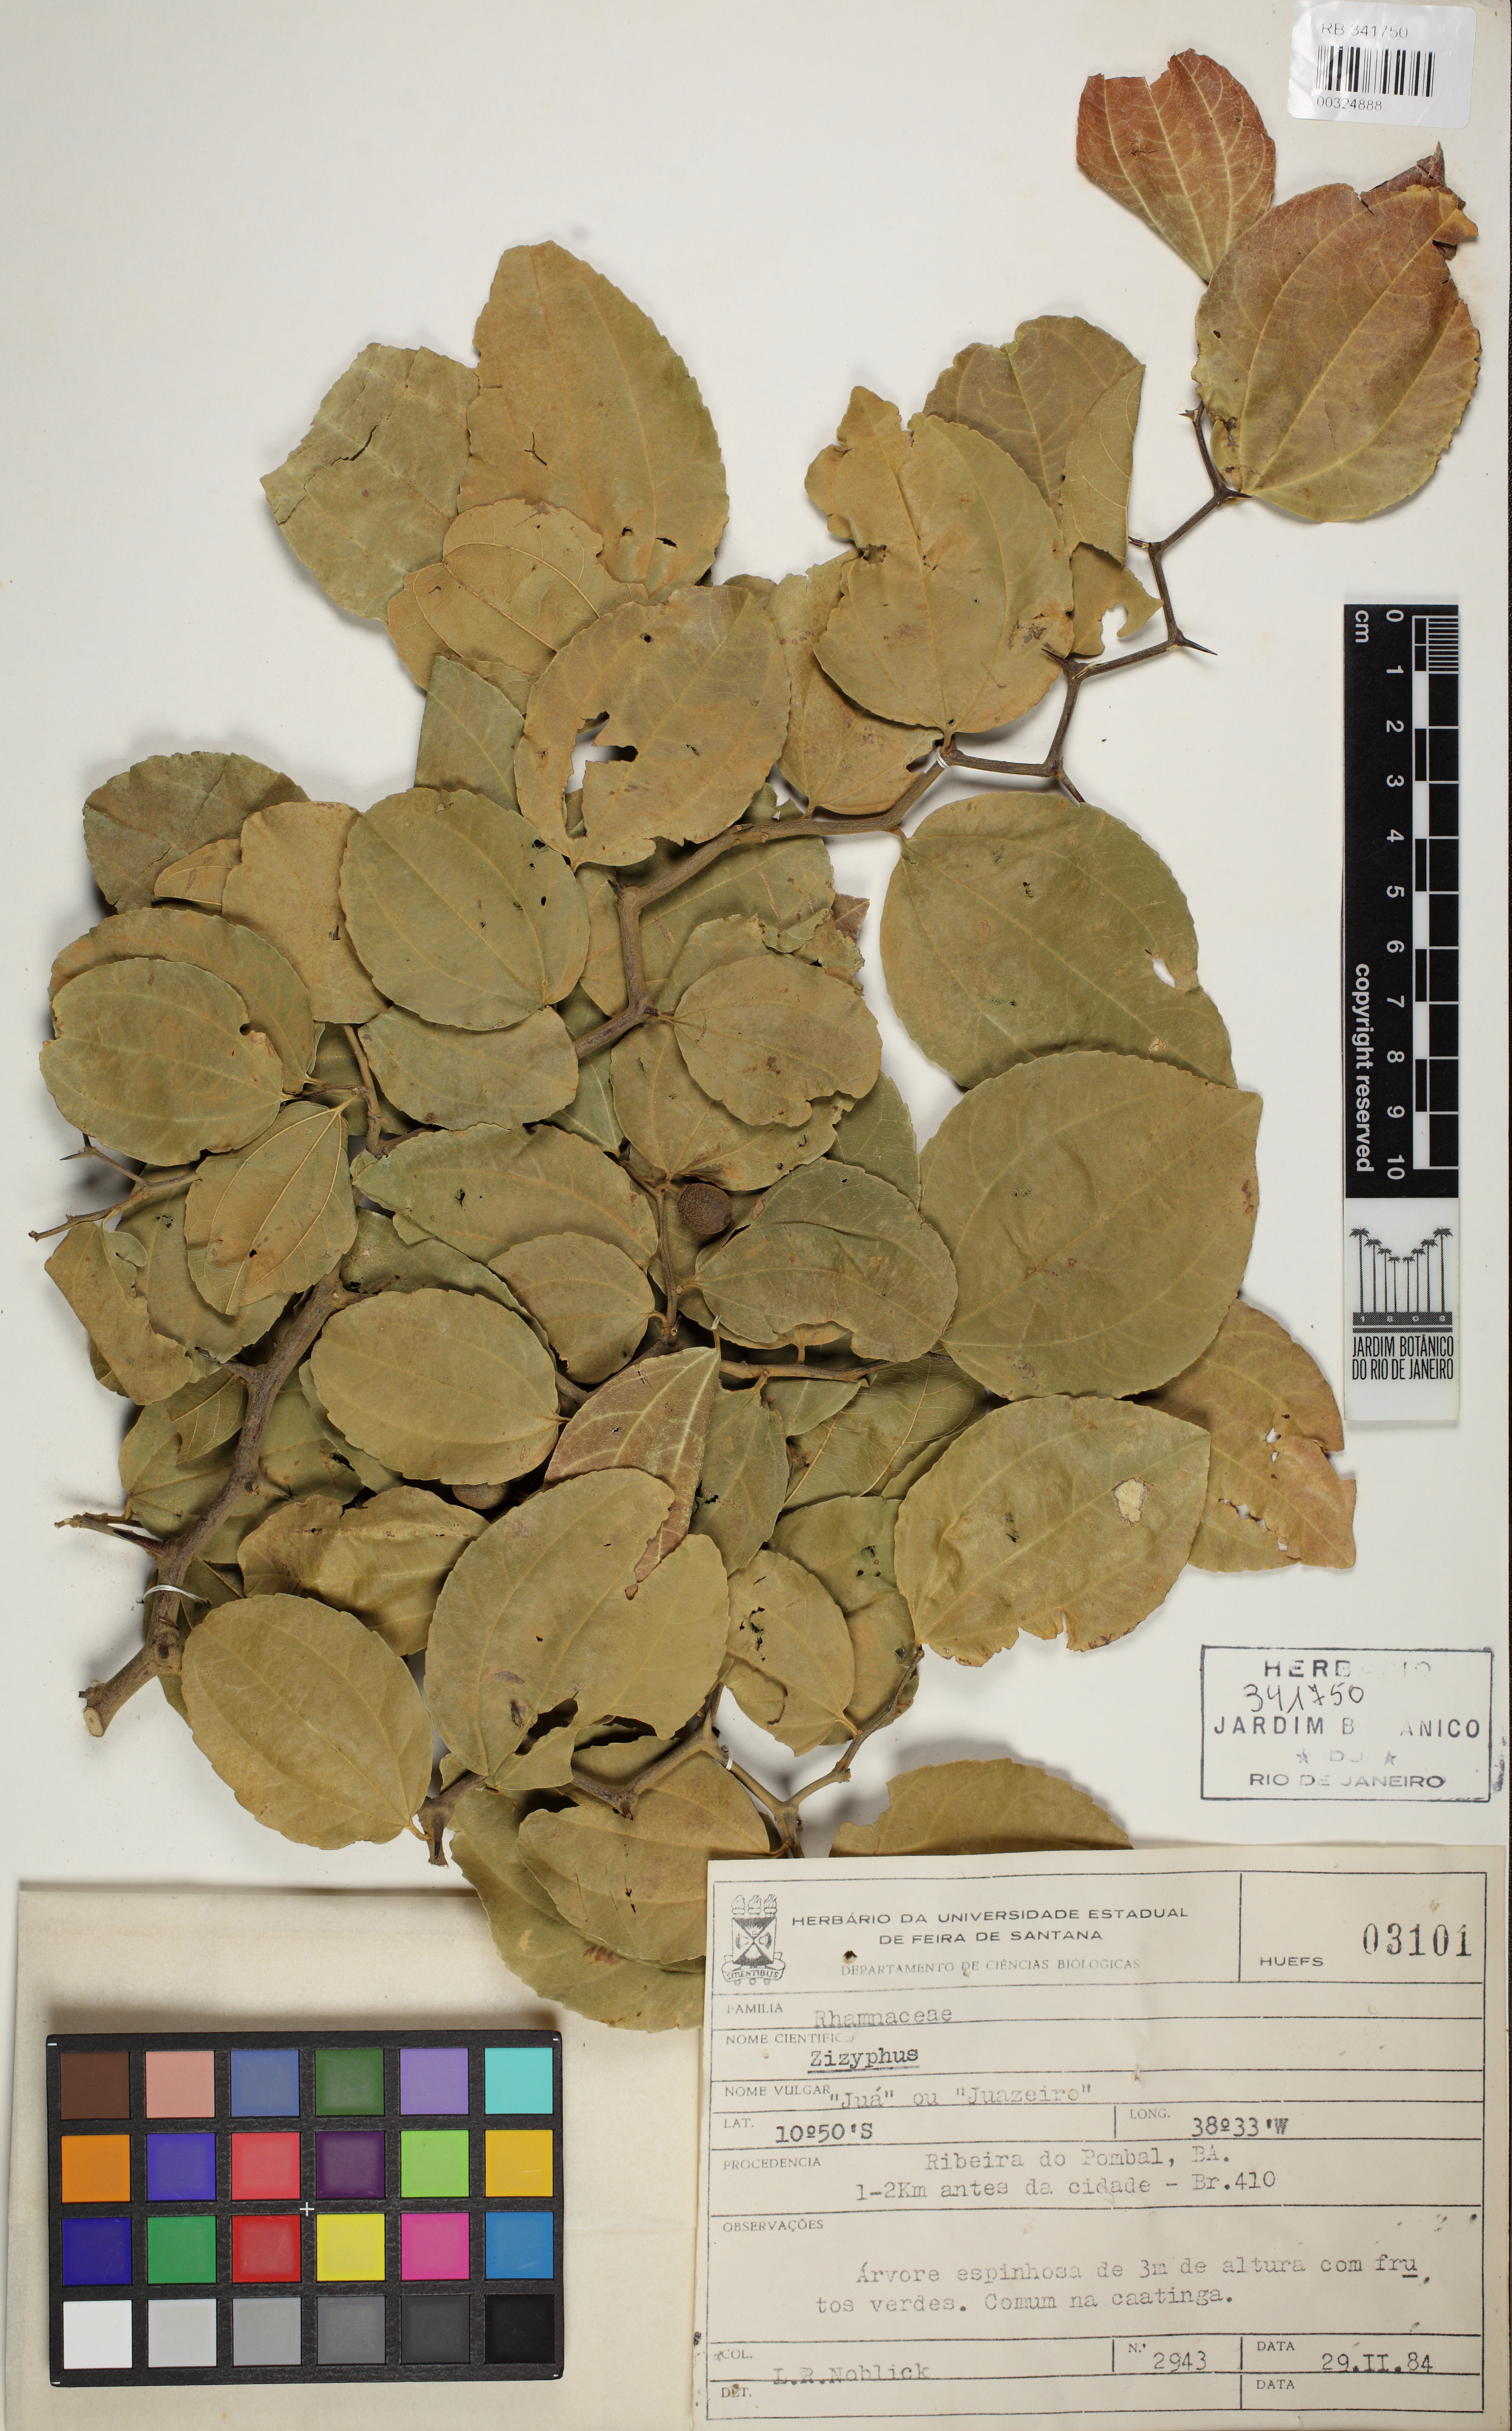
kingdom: Plantae
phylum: Tracheophyta
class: Magnoliopsida
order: Rosales
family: Rhamnaceae
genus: Ziziphus
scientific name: Ziziphus
